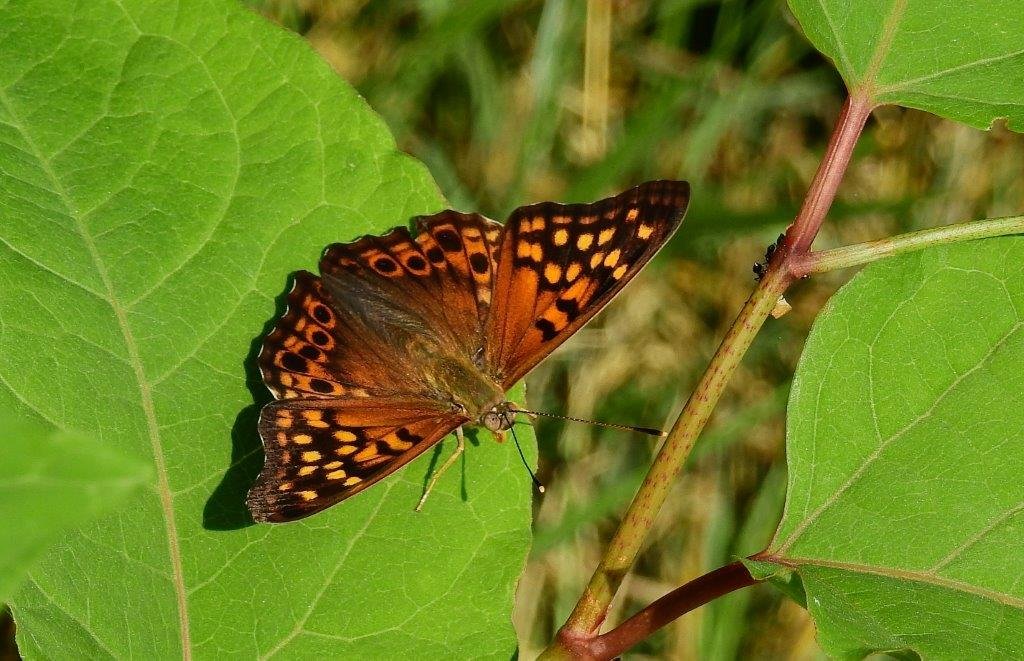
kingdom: Animalia
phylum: Arthropoda
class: Insecta
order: Lepidoptera
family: Nymphalidae
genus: Asterocampa
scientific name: Asterocampa clyton
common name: Tawny Emperor
